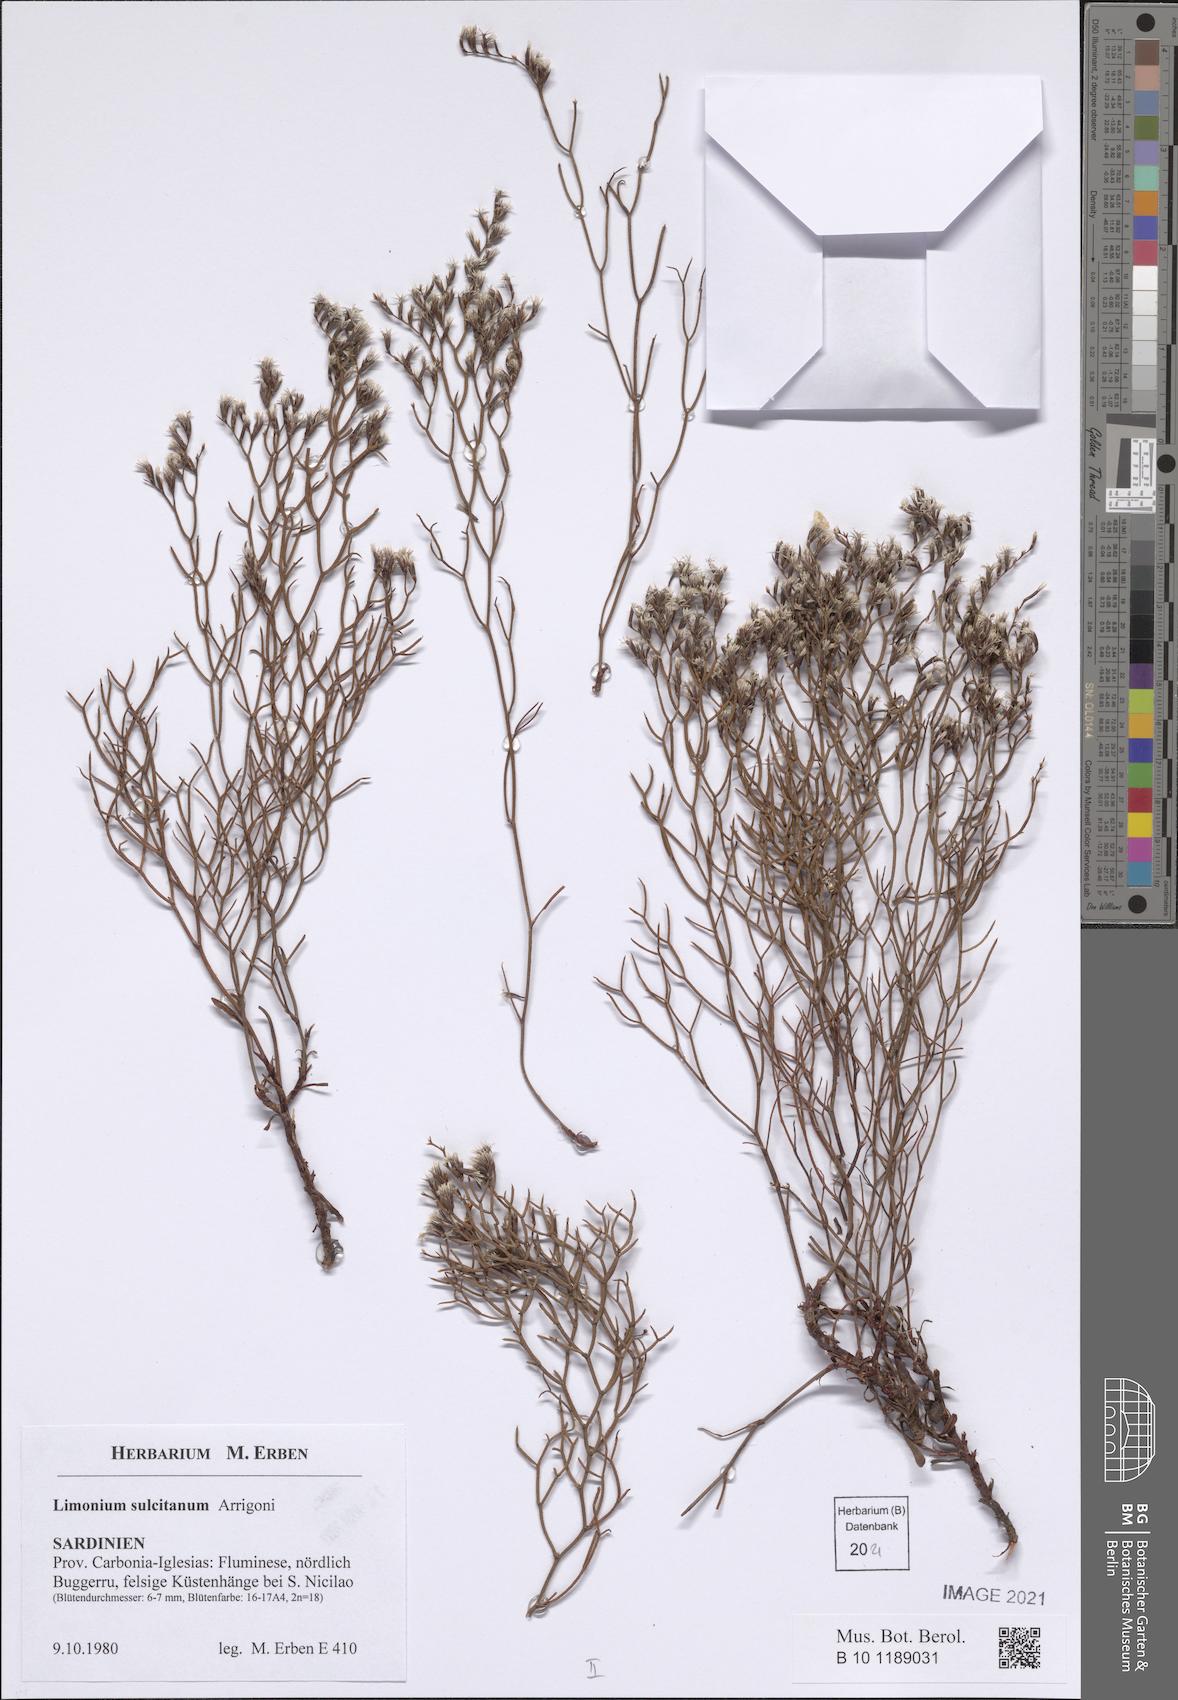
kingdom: Plantae
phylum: Tracheophyta
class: Magnoliopsida
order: Caryophyllales
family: Plumbaginaceae
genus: Limonium
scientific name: Limonium sulcitanum
